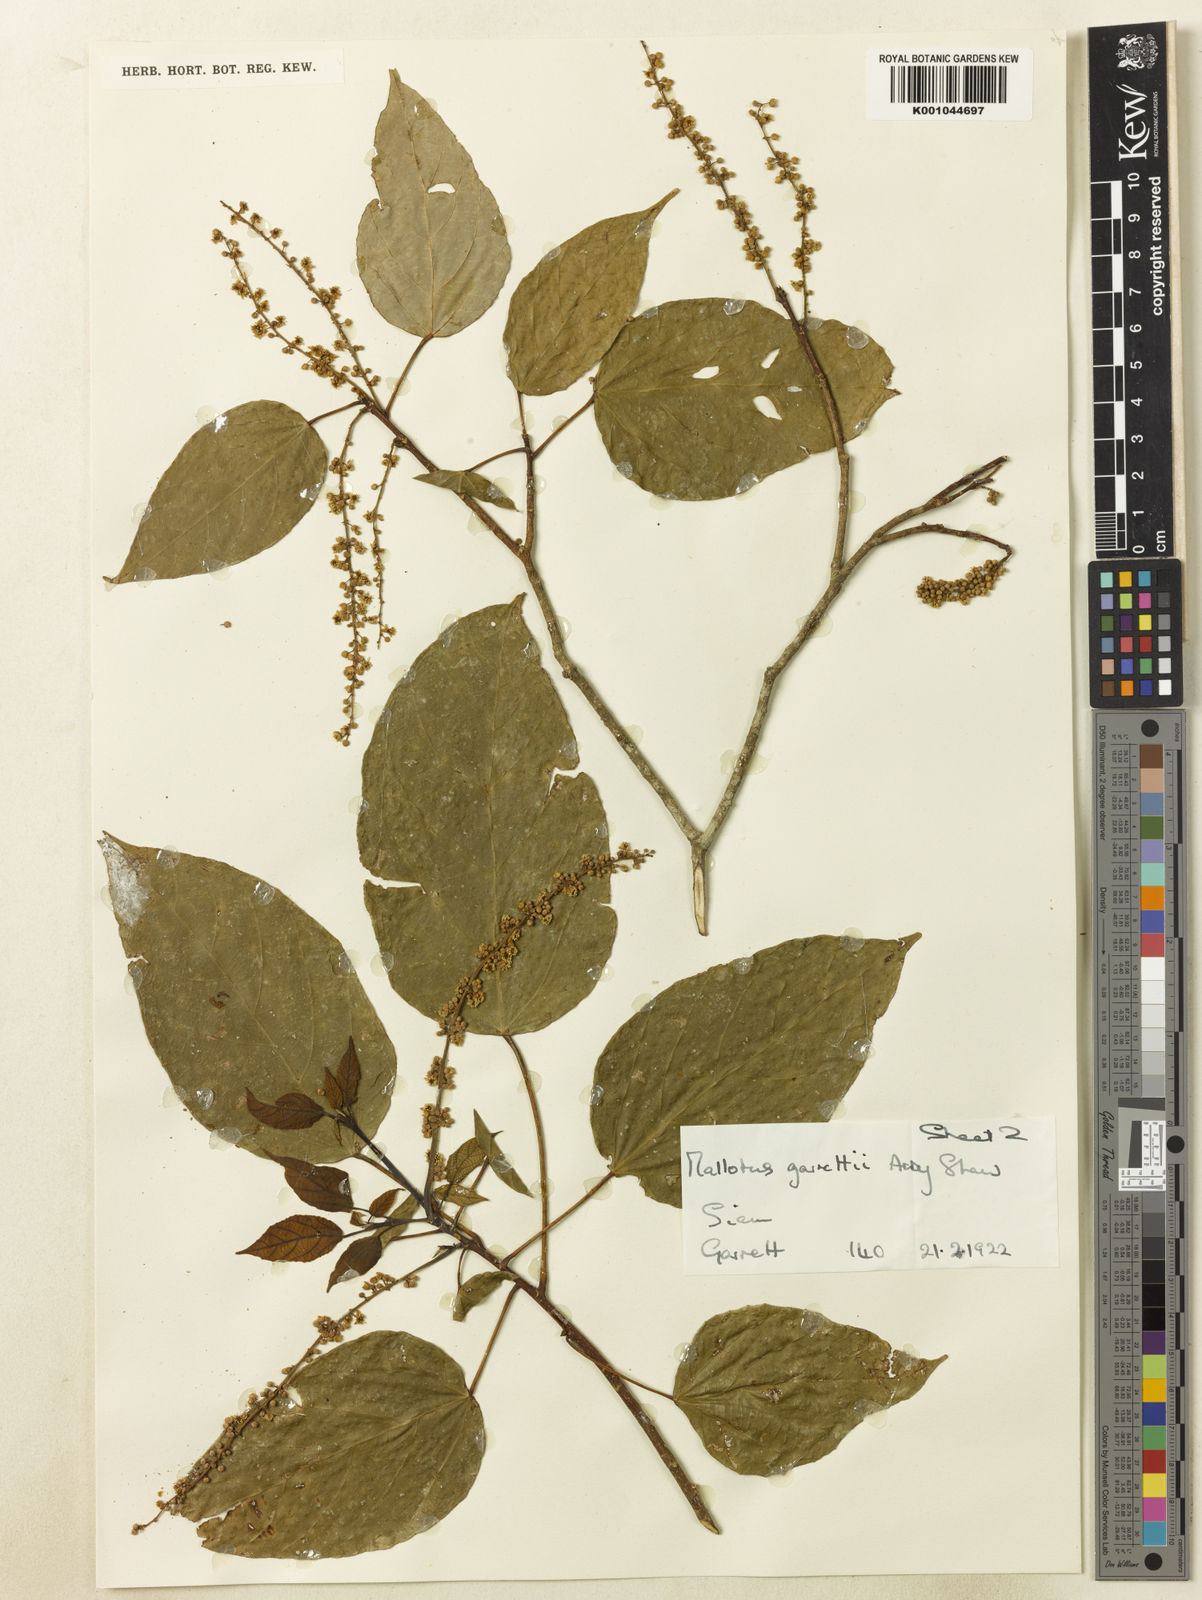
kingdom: Plantae
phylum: Tracheophyta
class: Magnoliopsida
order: Malpighiales
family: Euphorbiaceae
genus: Mallotus
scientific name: Mallotus garrettii
